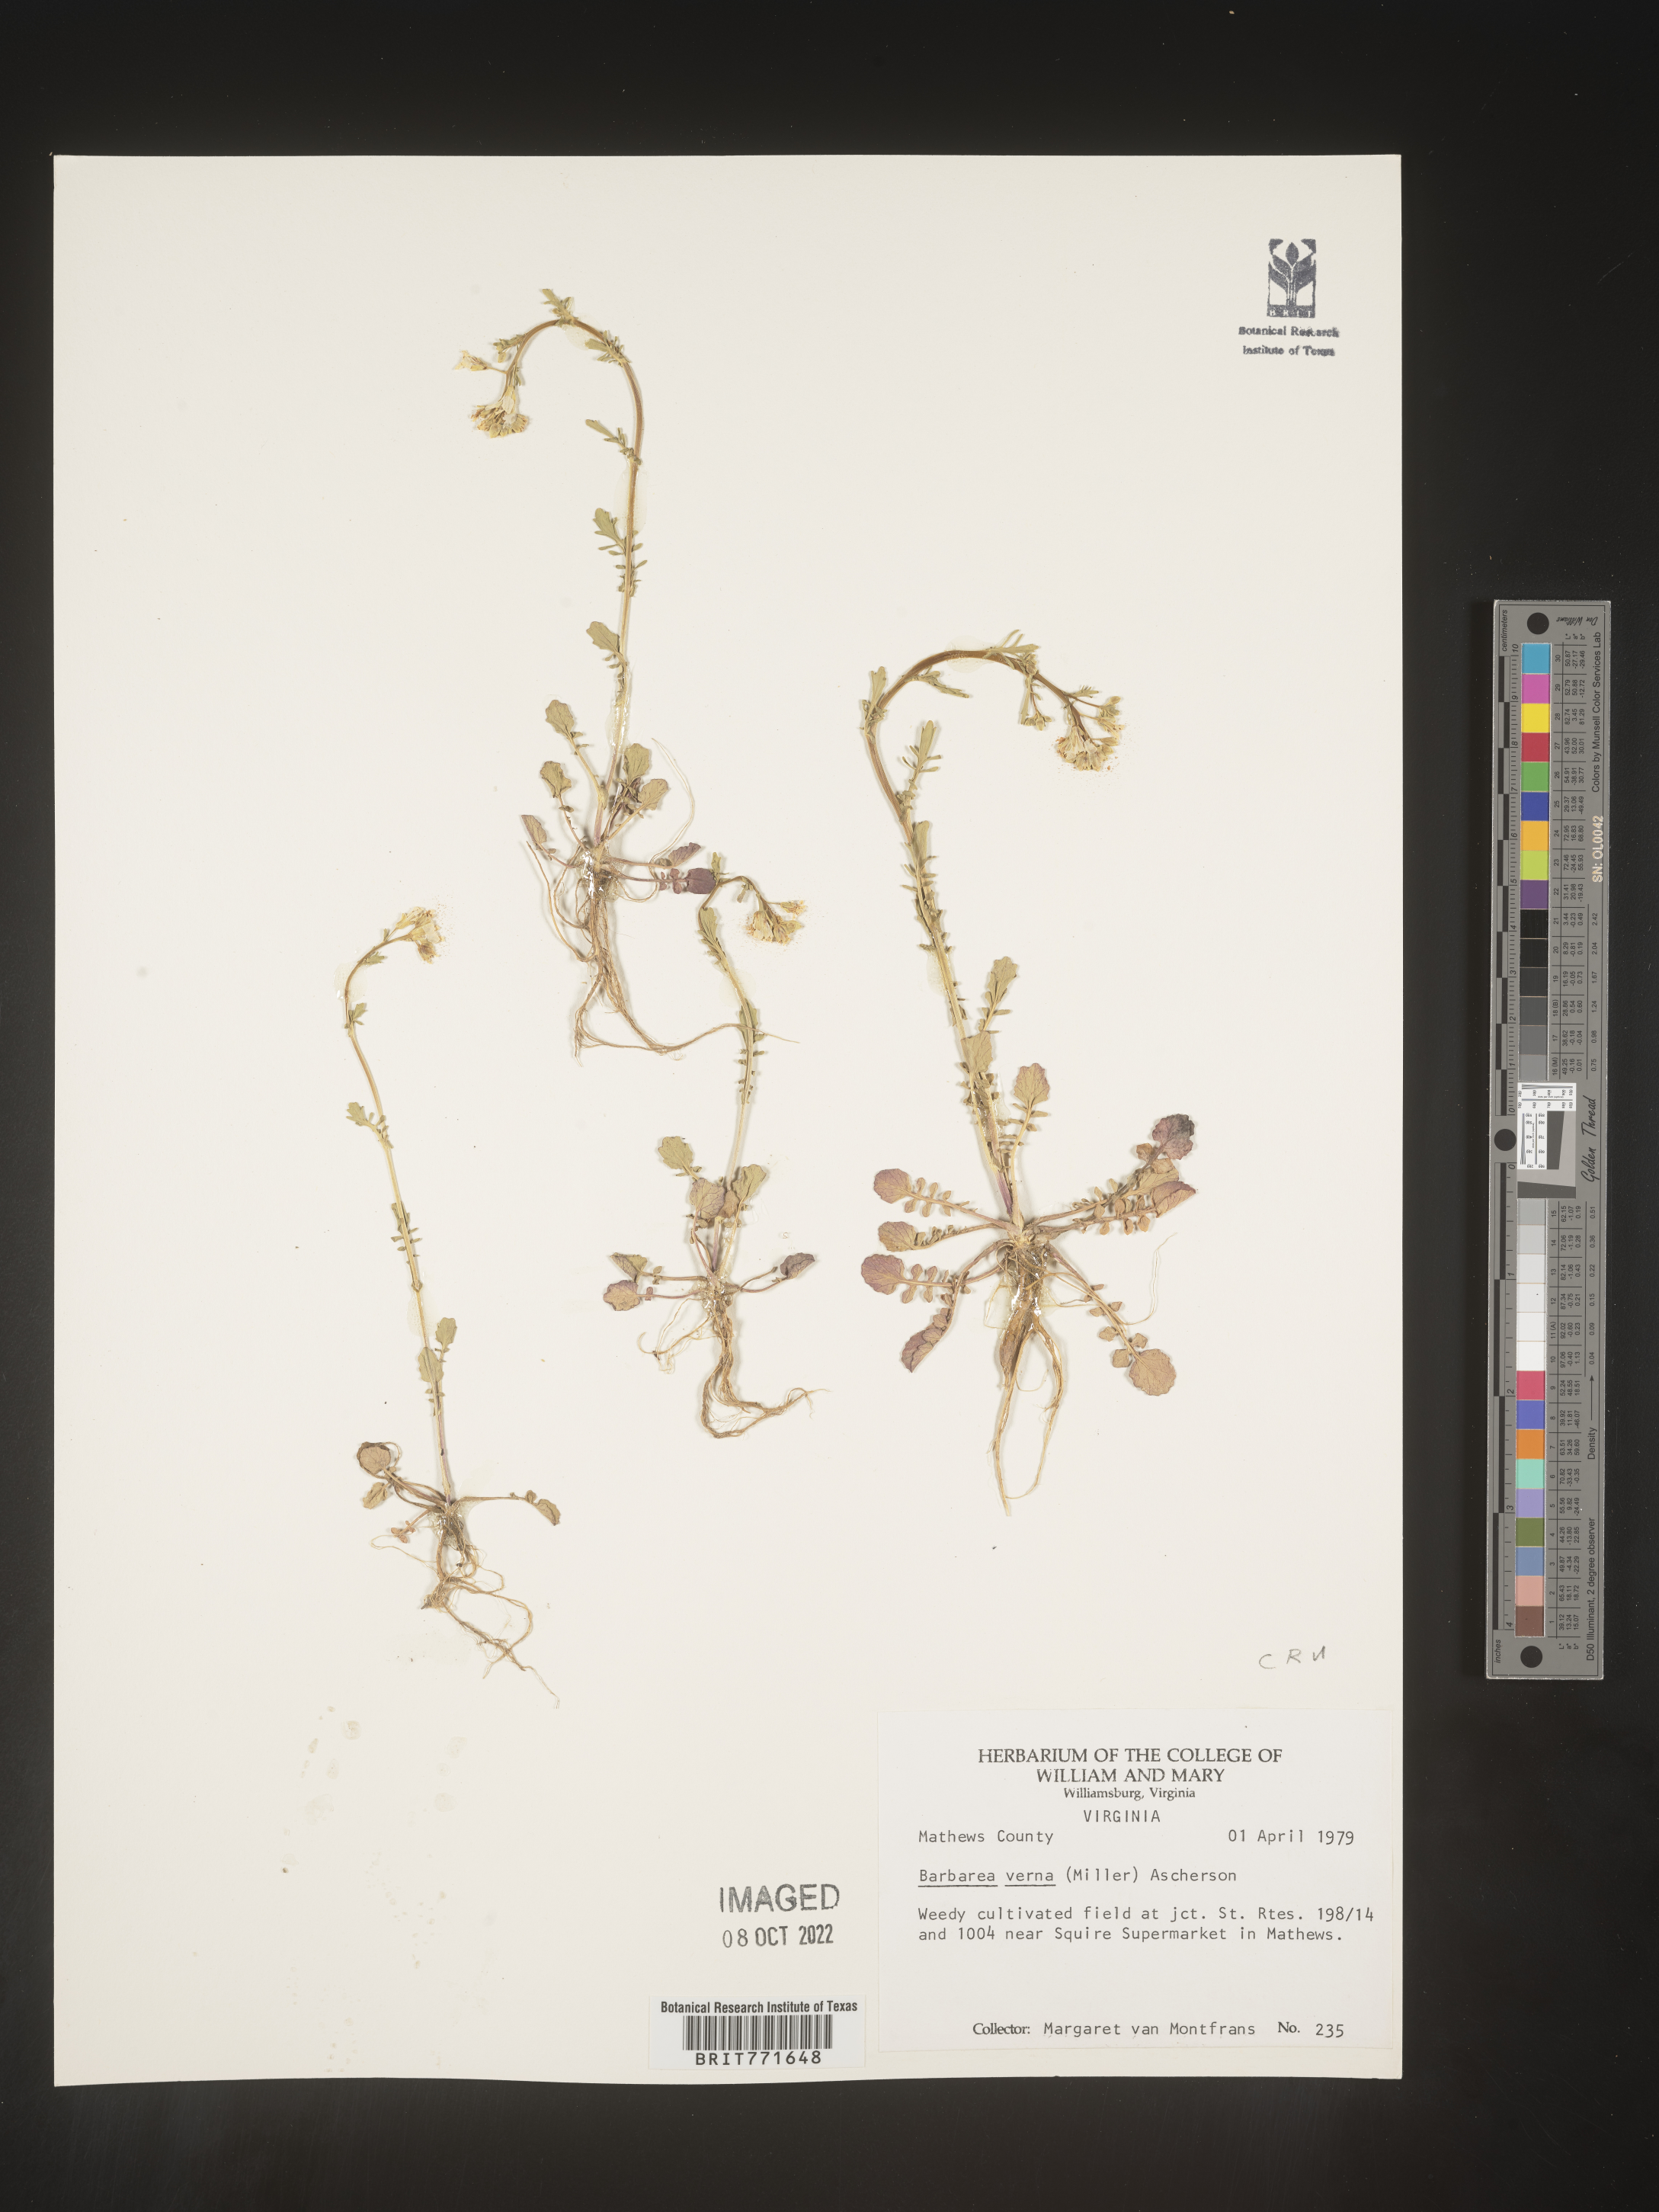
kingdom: Plantae
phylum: Tracheophyta
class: Magnoliopsida
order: Brassicales
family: Brassicaceae
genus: Barbarea
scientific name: Barbarea verna
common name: American cress
